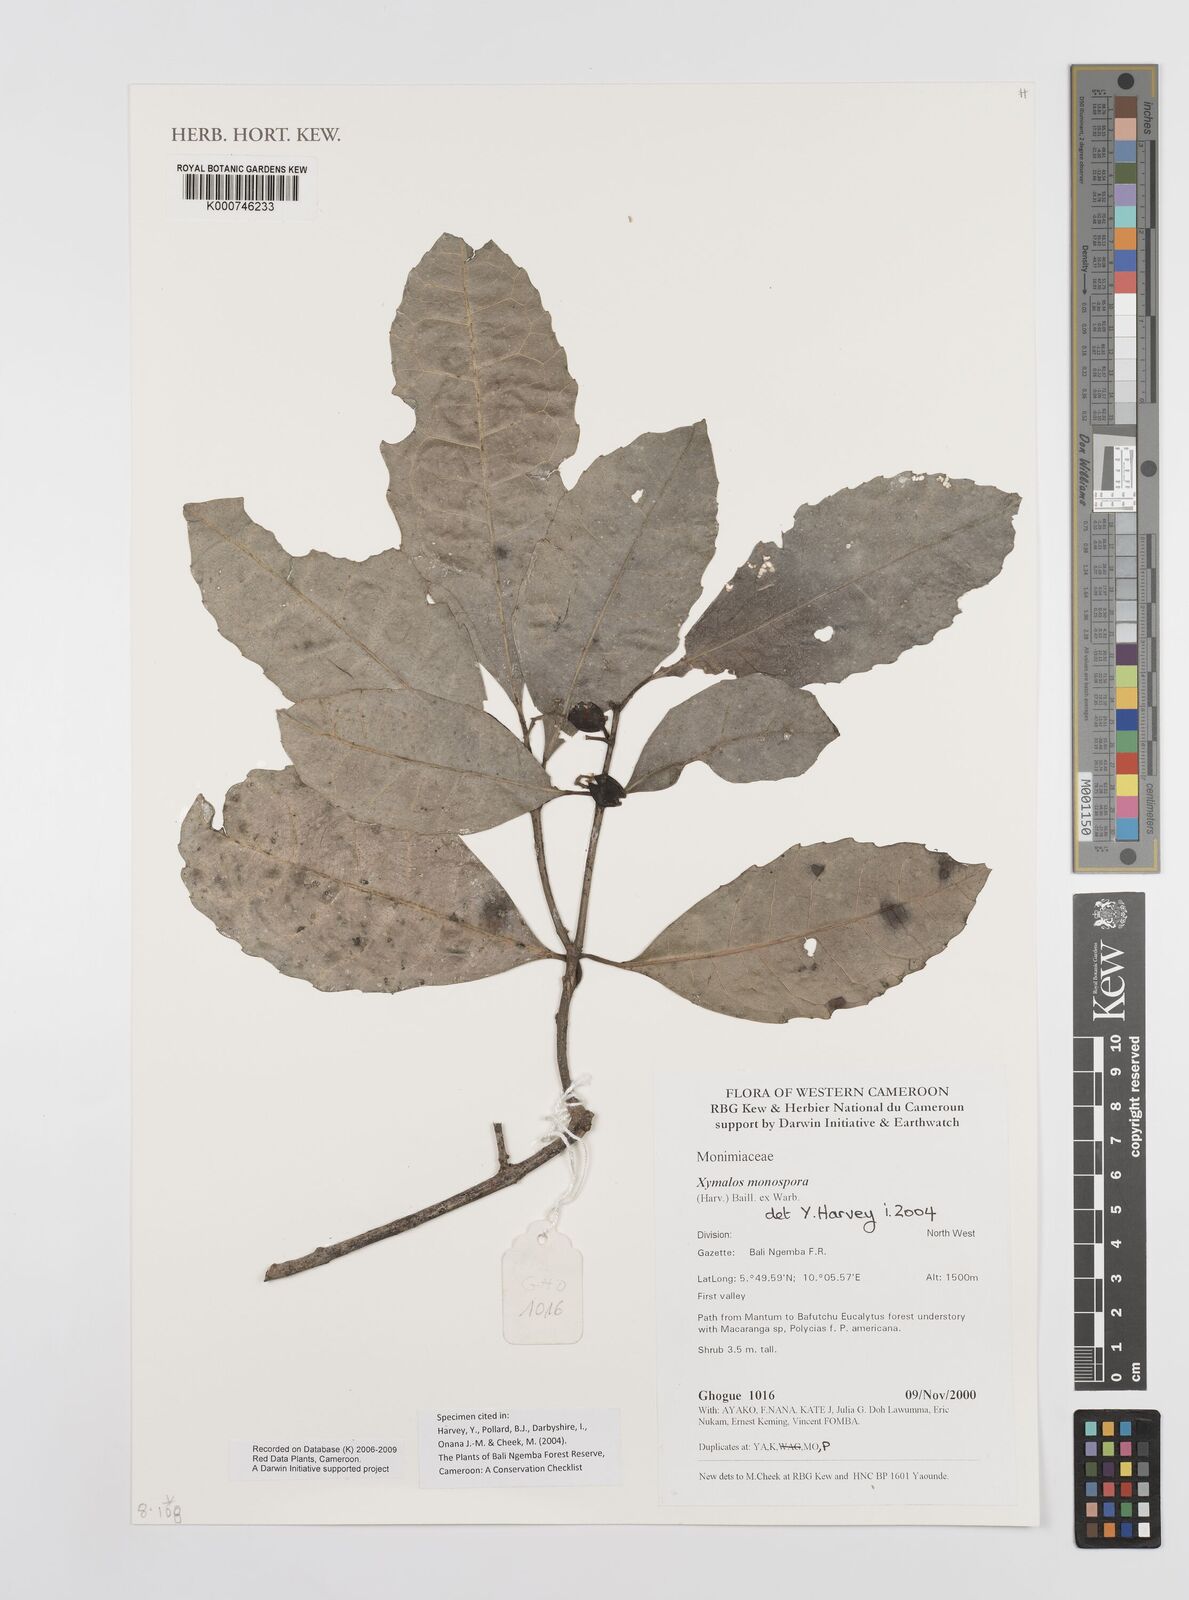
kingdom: Plantae
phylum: Tracheophyta
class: Magnoliopsida
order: Laurales
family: Monimiaceae
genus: Xymalos
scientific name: Xymalos
